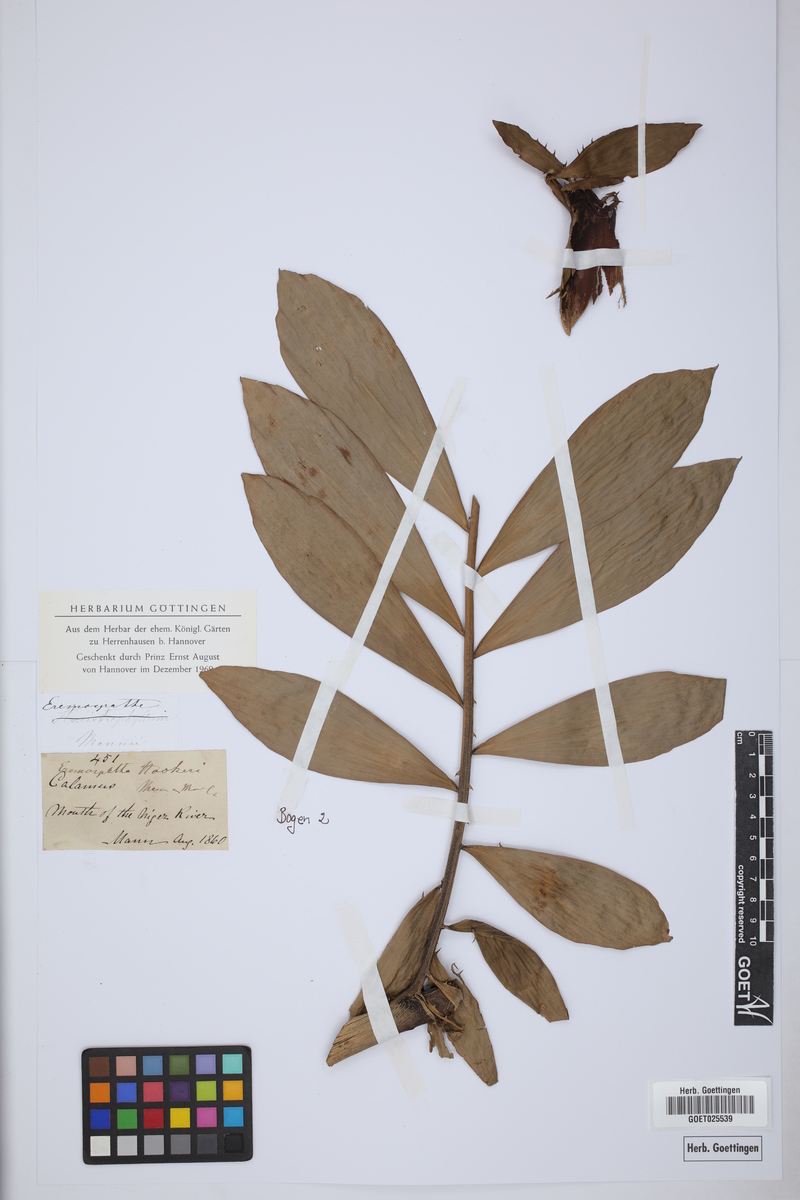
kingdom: Plantae
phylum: Tracheophyta
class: Liliopsida
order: Arecales
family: Arecaceae
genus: Eremospatha
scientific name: Eremospatha hookeri
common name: Rattan
